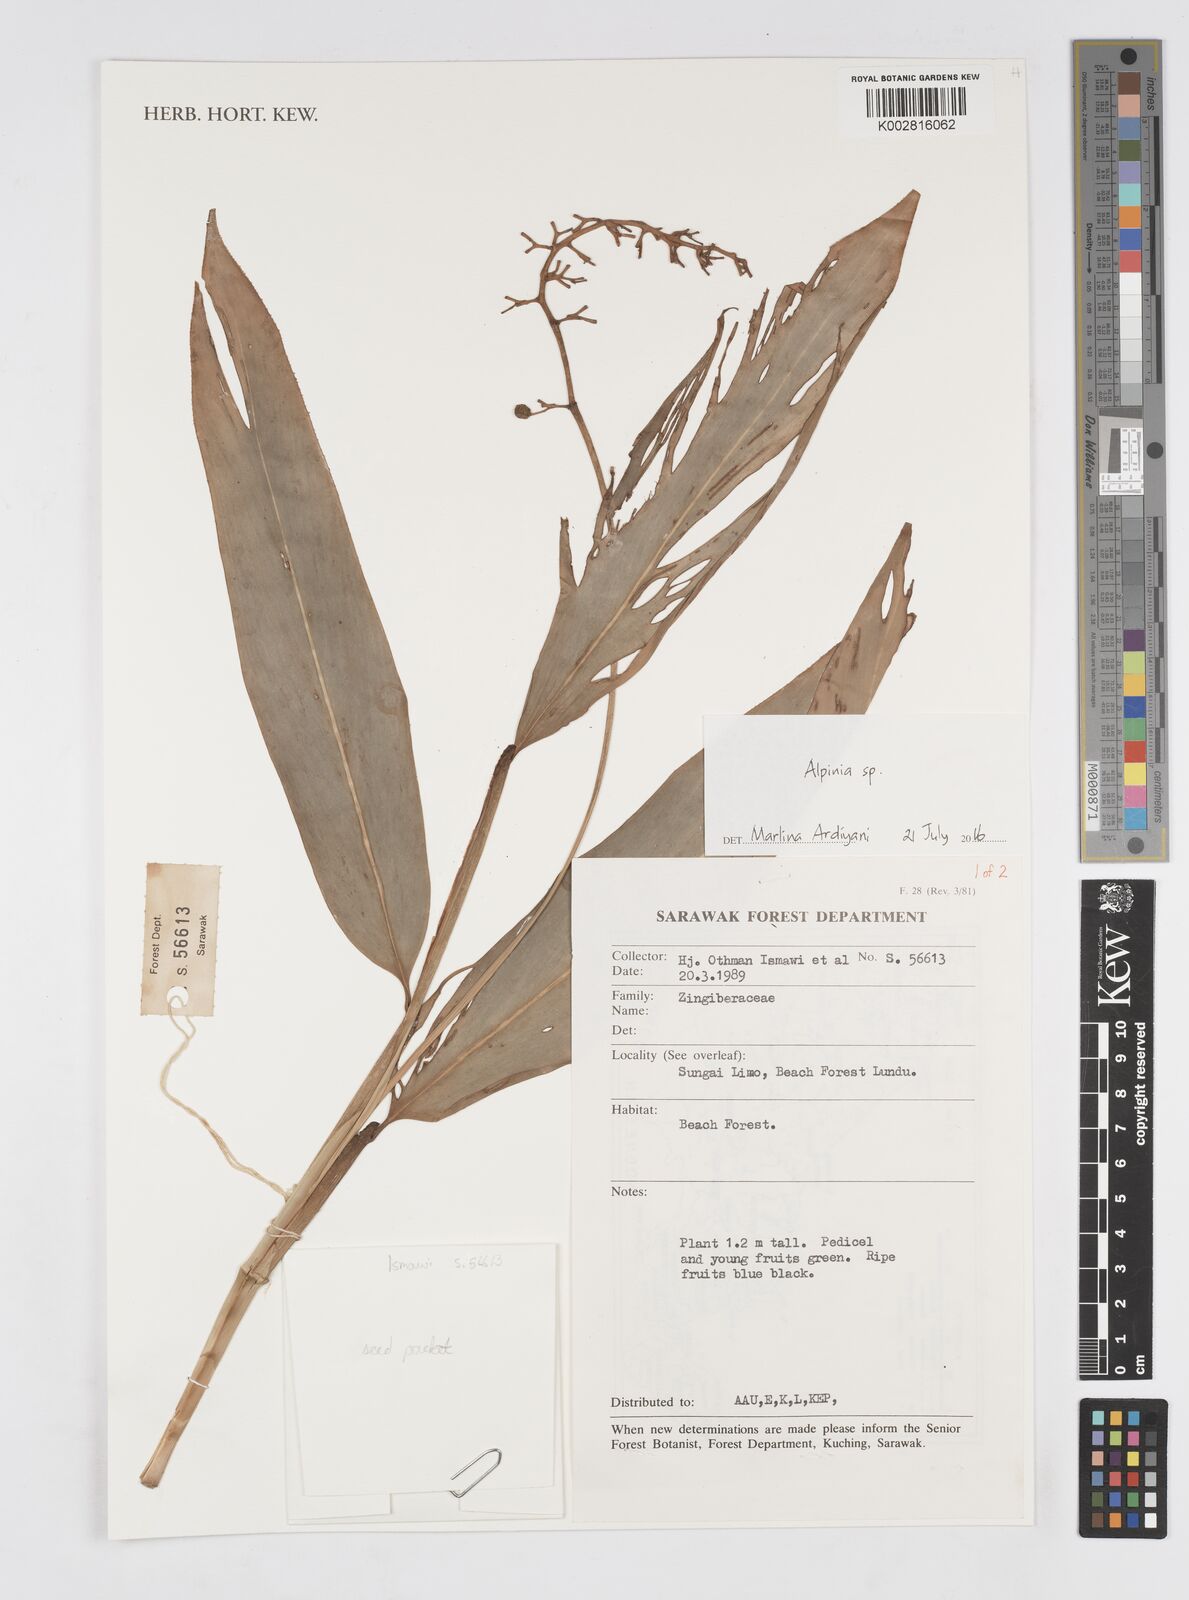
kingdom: Plantae
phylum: Tracheophyta
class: Liliopsida
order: Zingiberales
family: Zingiberaceae
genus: Alpinia
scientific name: Alpinia
